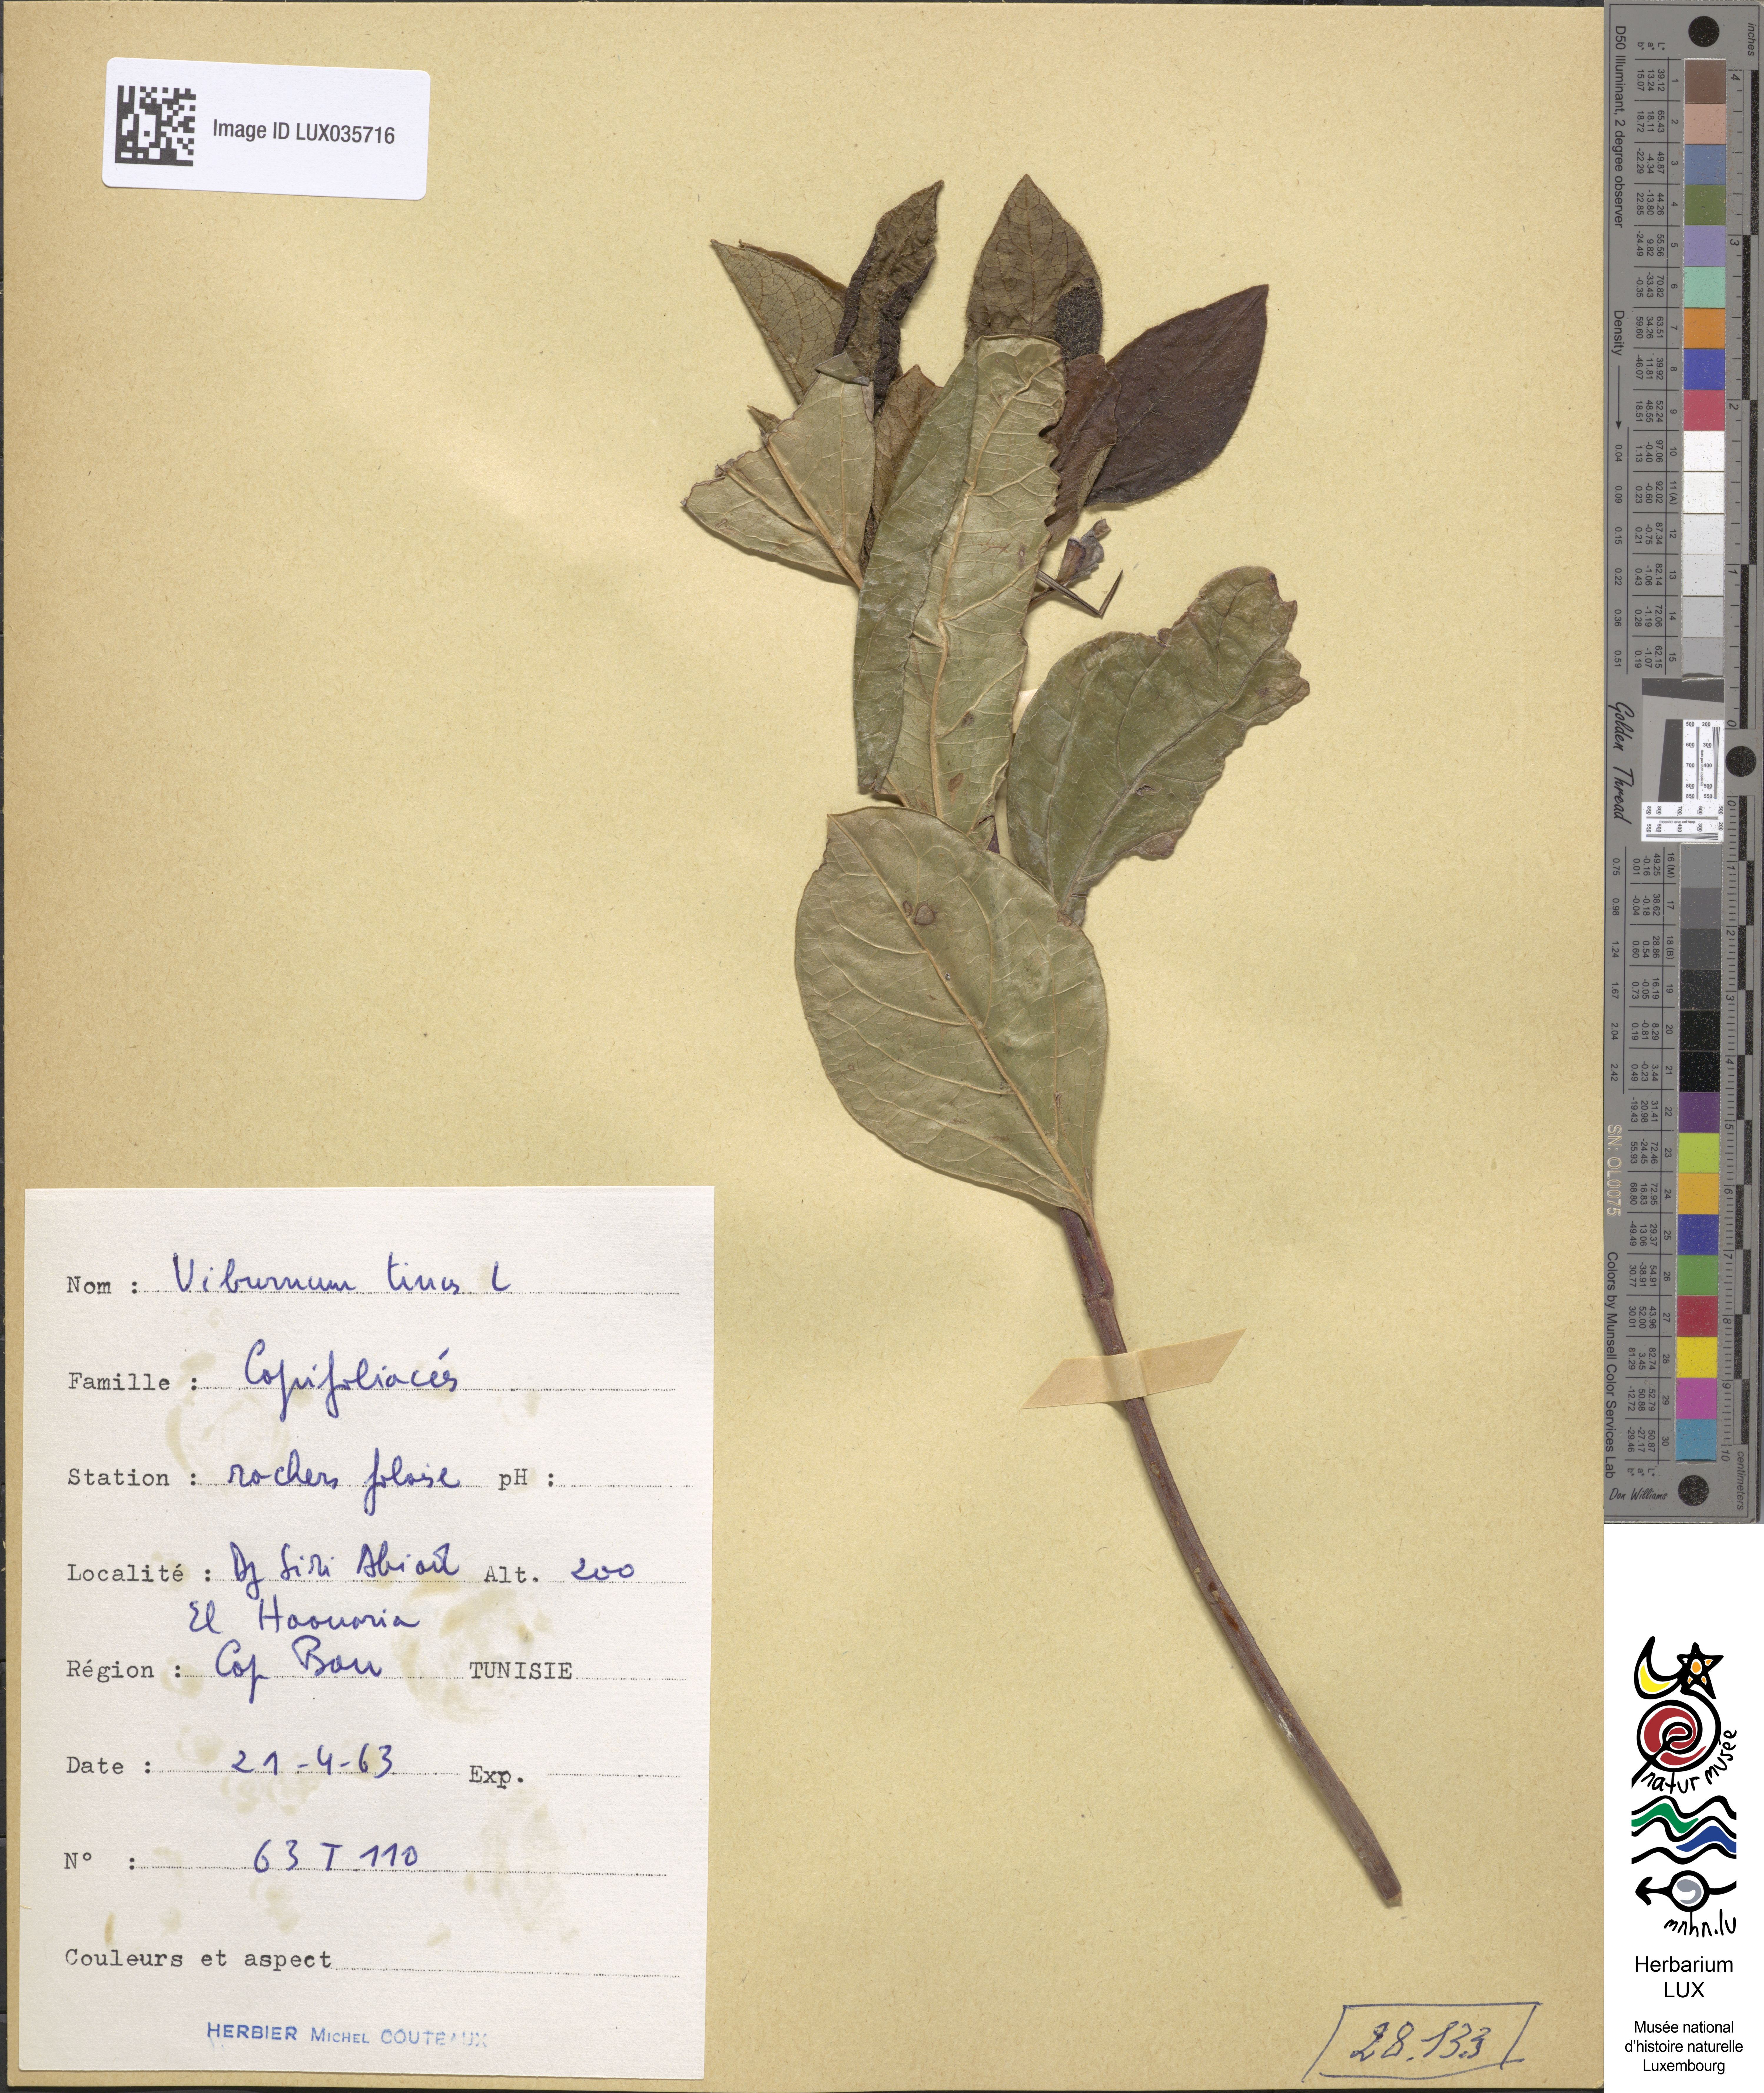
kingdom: Plantae
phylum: Tracheophyta
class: Magnoliopsida
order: Dipsacales
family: Viburnaceae
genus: Viburnum
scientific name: Viburnum tinus
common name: Laurustinus
